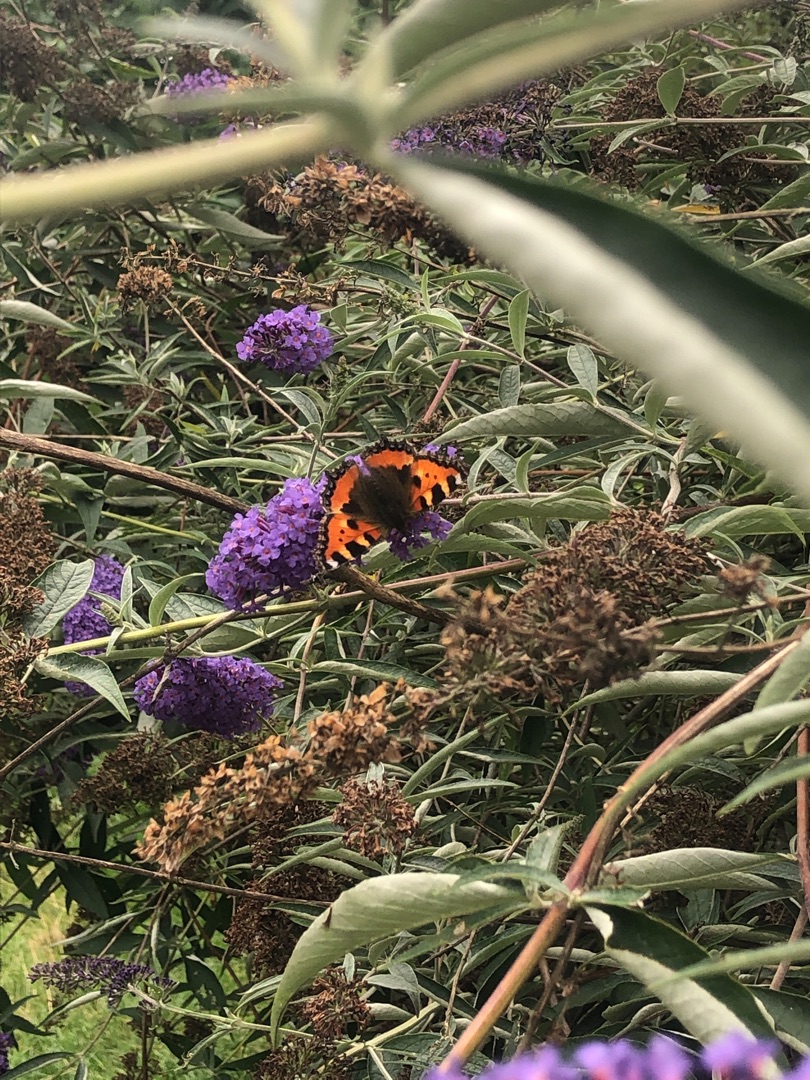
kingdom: Animalia
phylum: Arthropoda
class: Insecta
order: Lepidoptera
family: Nymphalidae
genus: Aglais
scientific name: Aglais urticae
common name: Nældens takvinge
